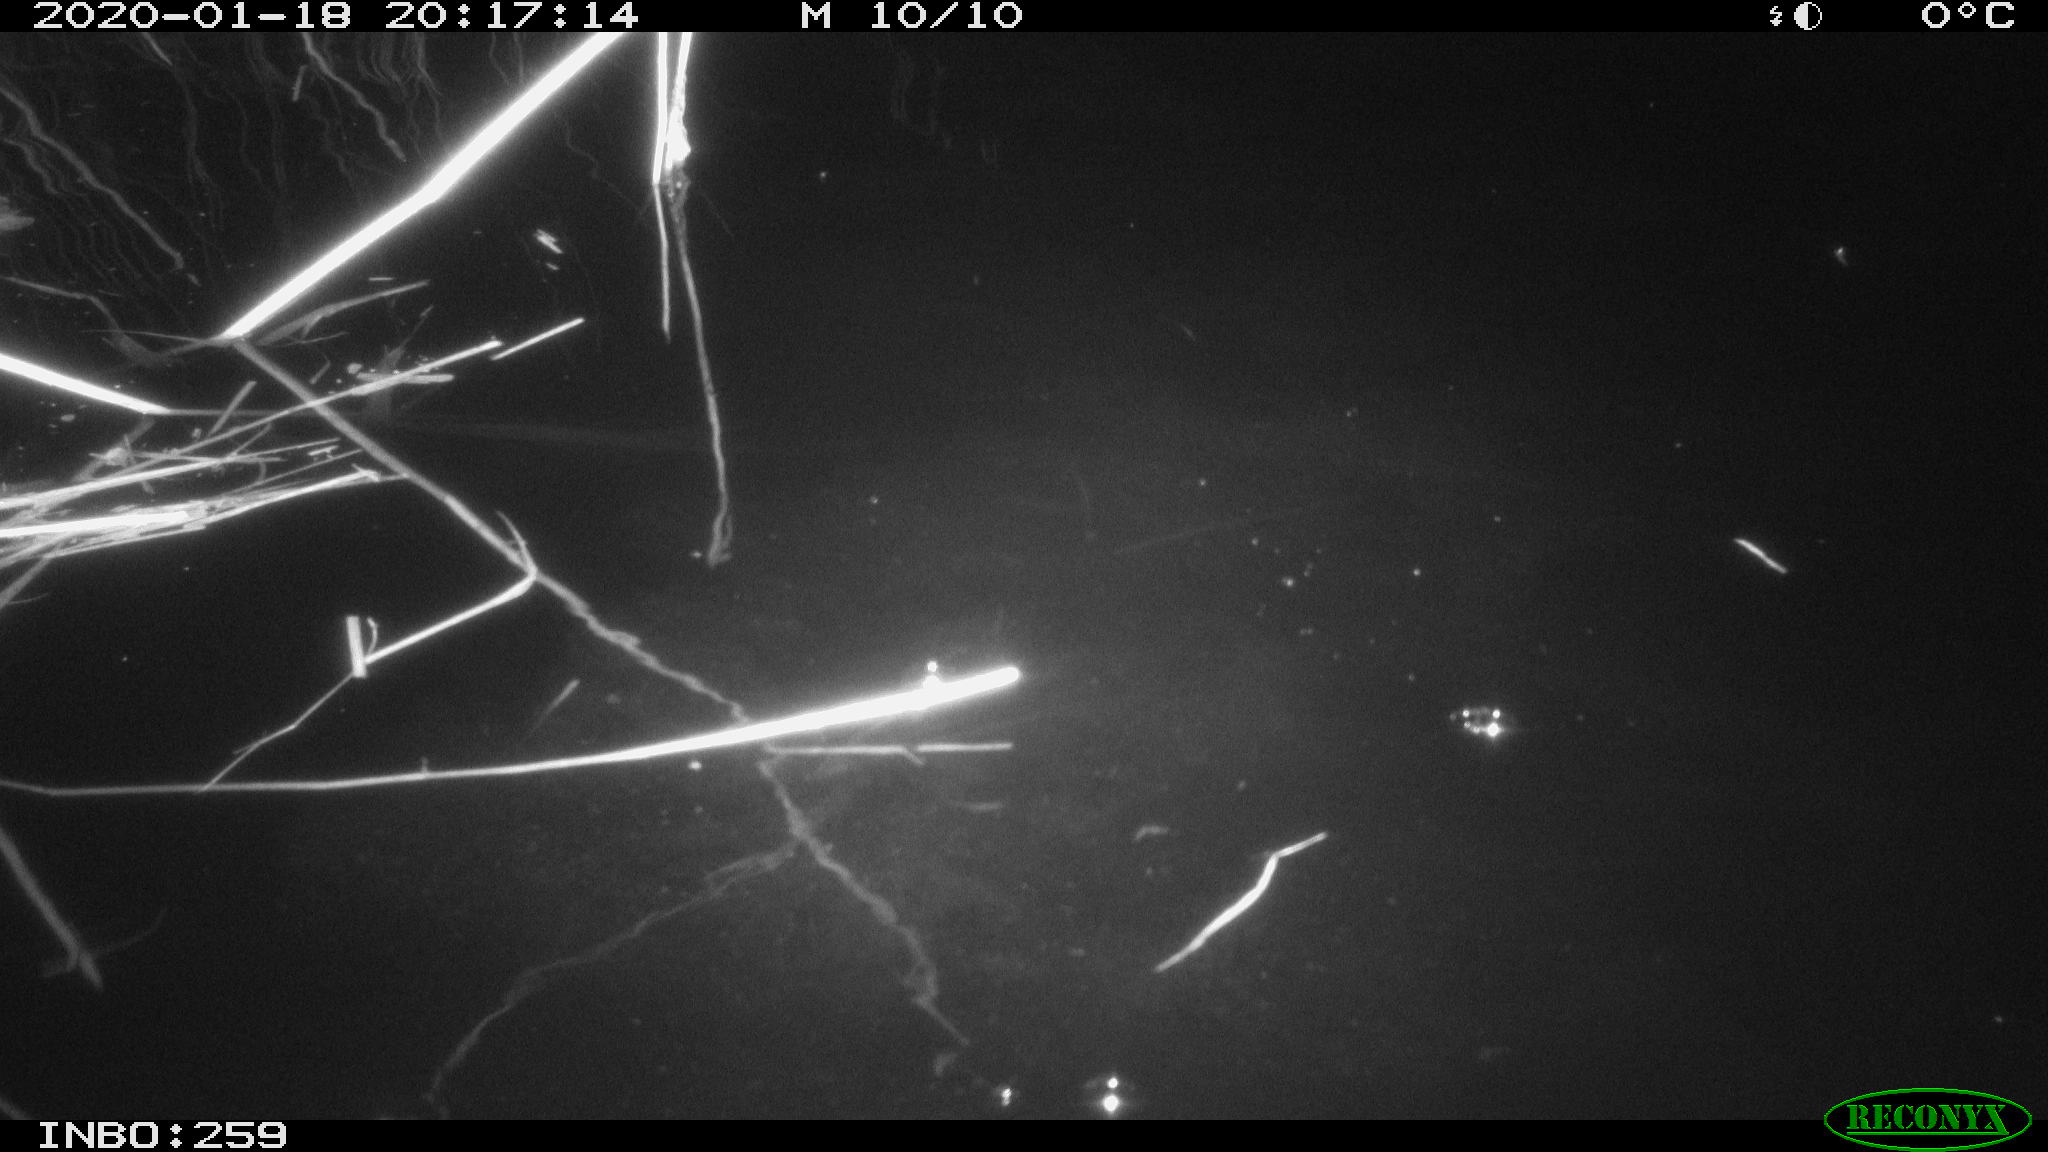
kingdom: Animalia
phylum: Chordata
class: Mammalia
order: Rodentia
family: Cricetidae
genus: Ondatra
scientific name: Ondatra zibethicus
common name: Muskrat
